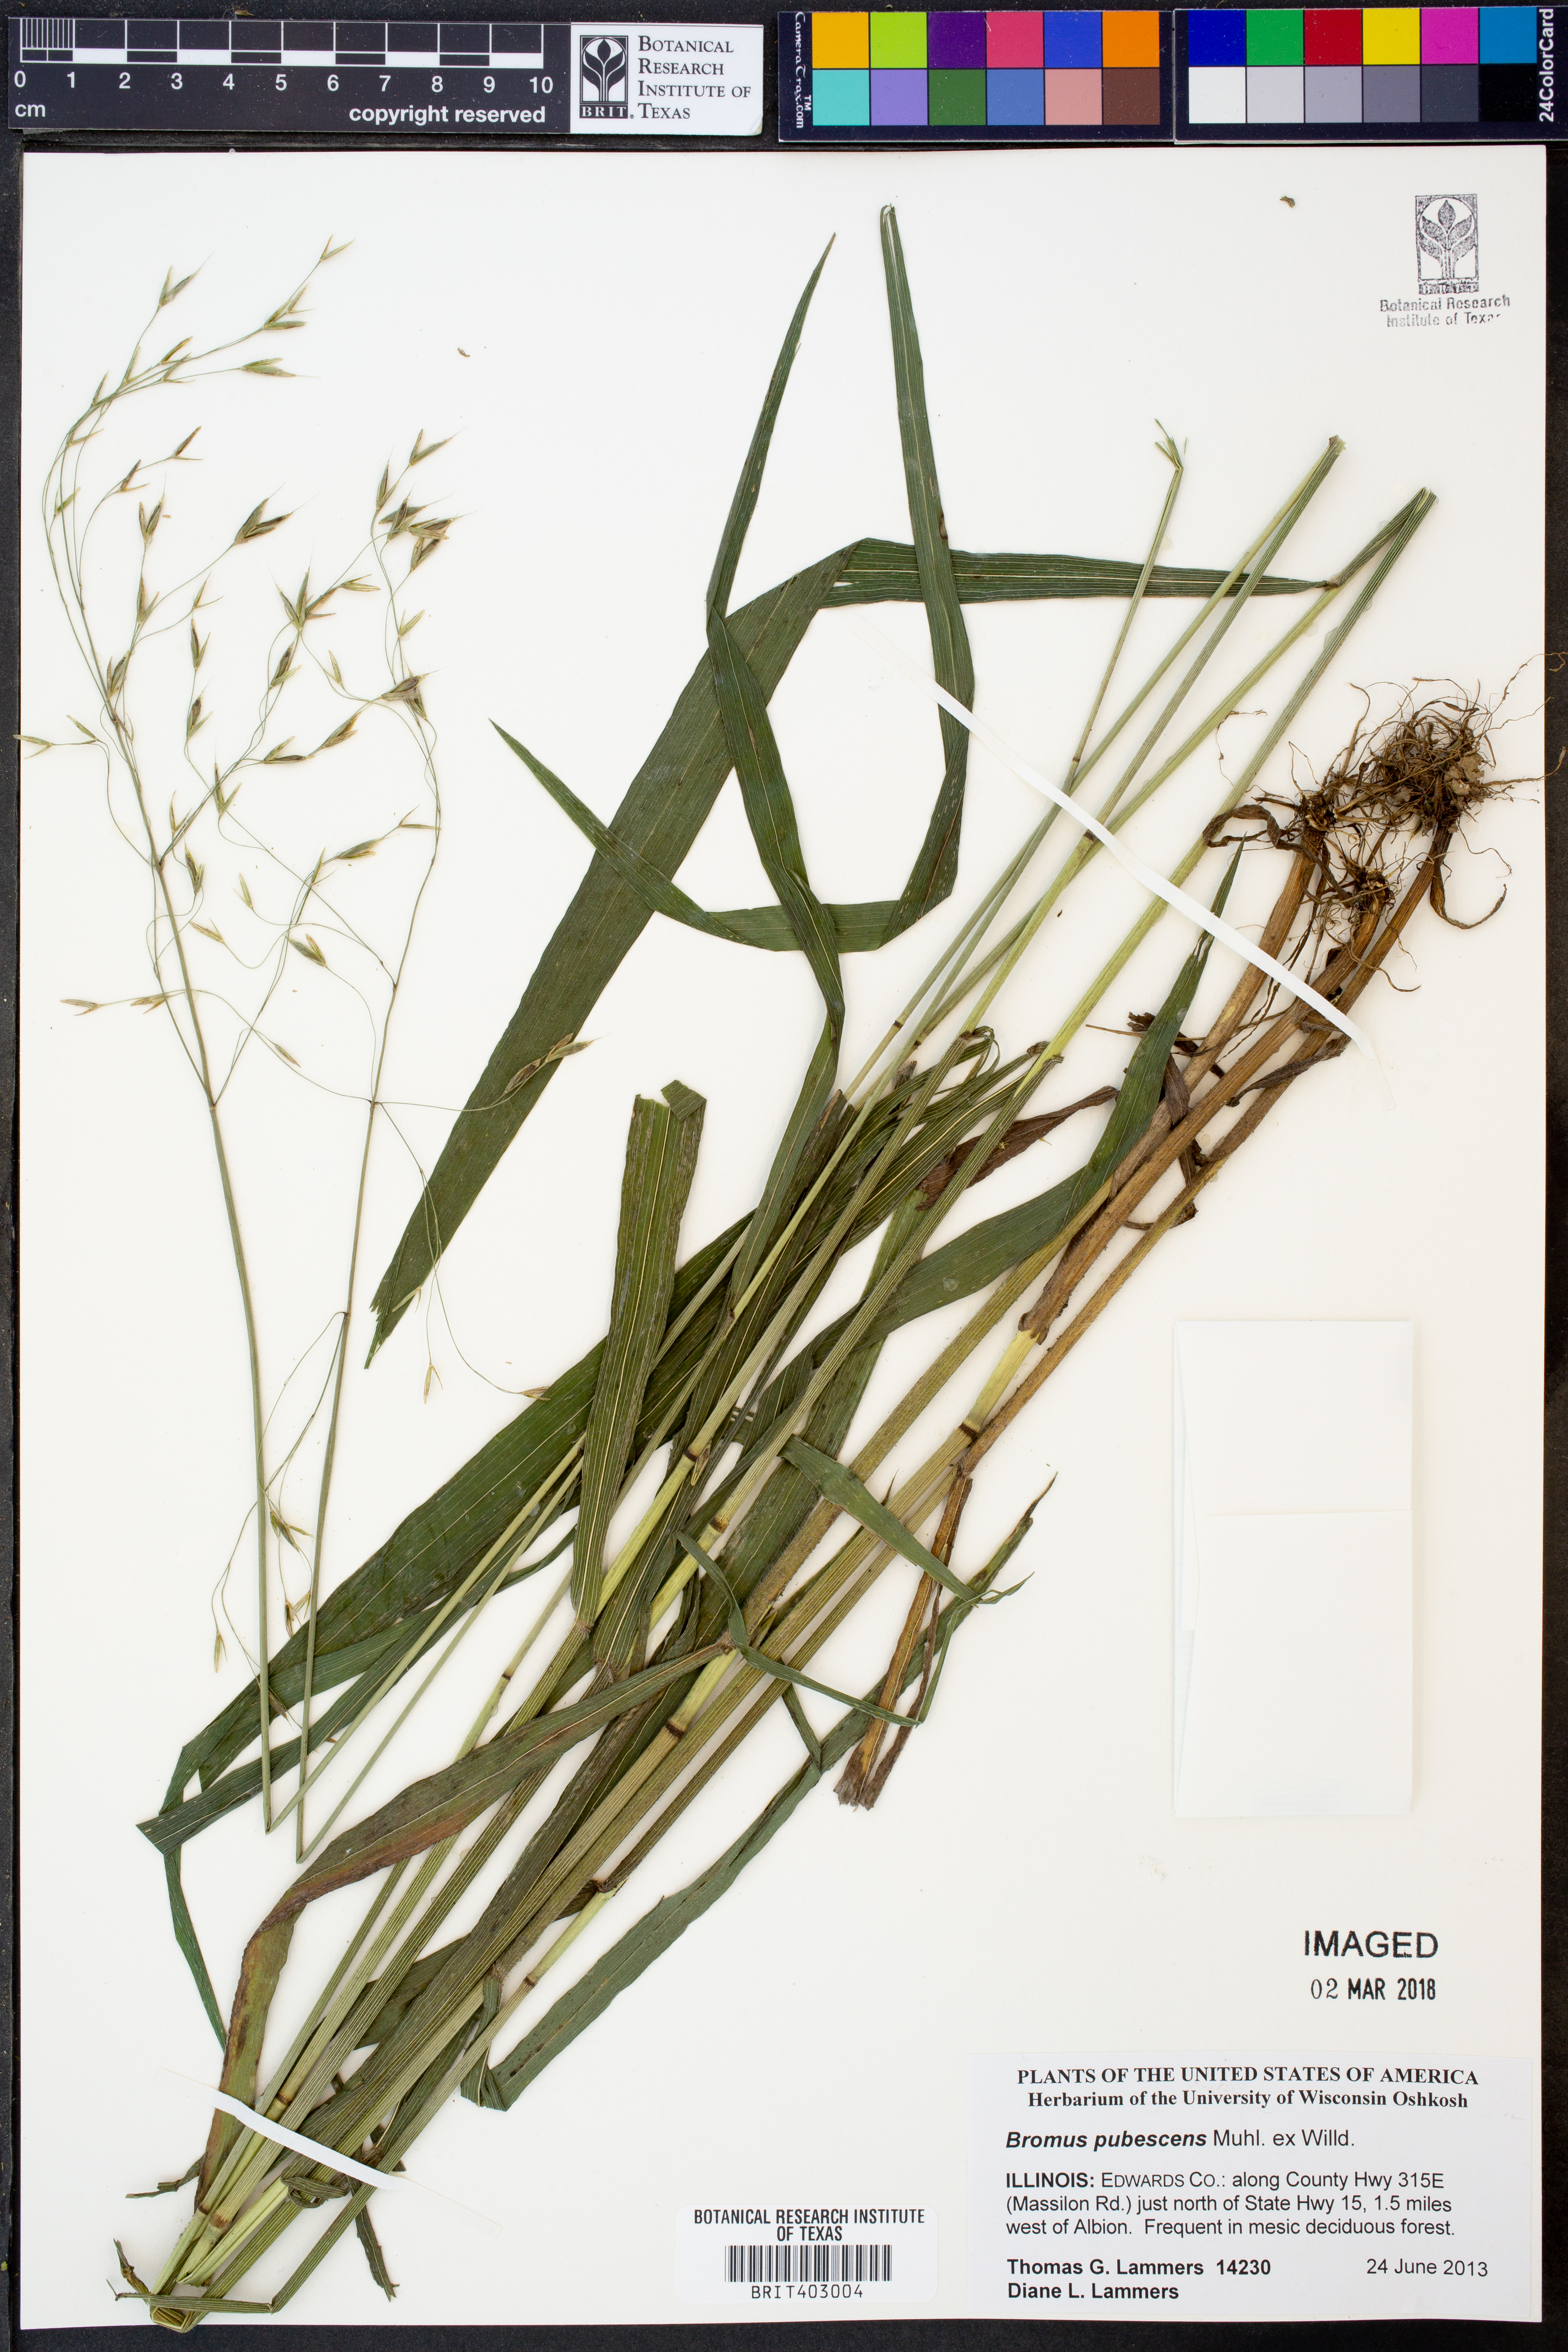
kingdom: Plantae
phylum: Tracheophyta
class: Liliopsida
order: Poales
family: Poaceae
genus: Bromus
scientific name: Bromus pubescens
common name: Hairy wood brome grass
